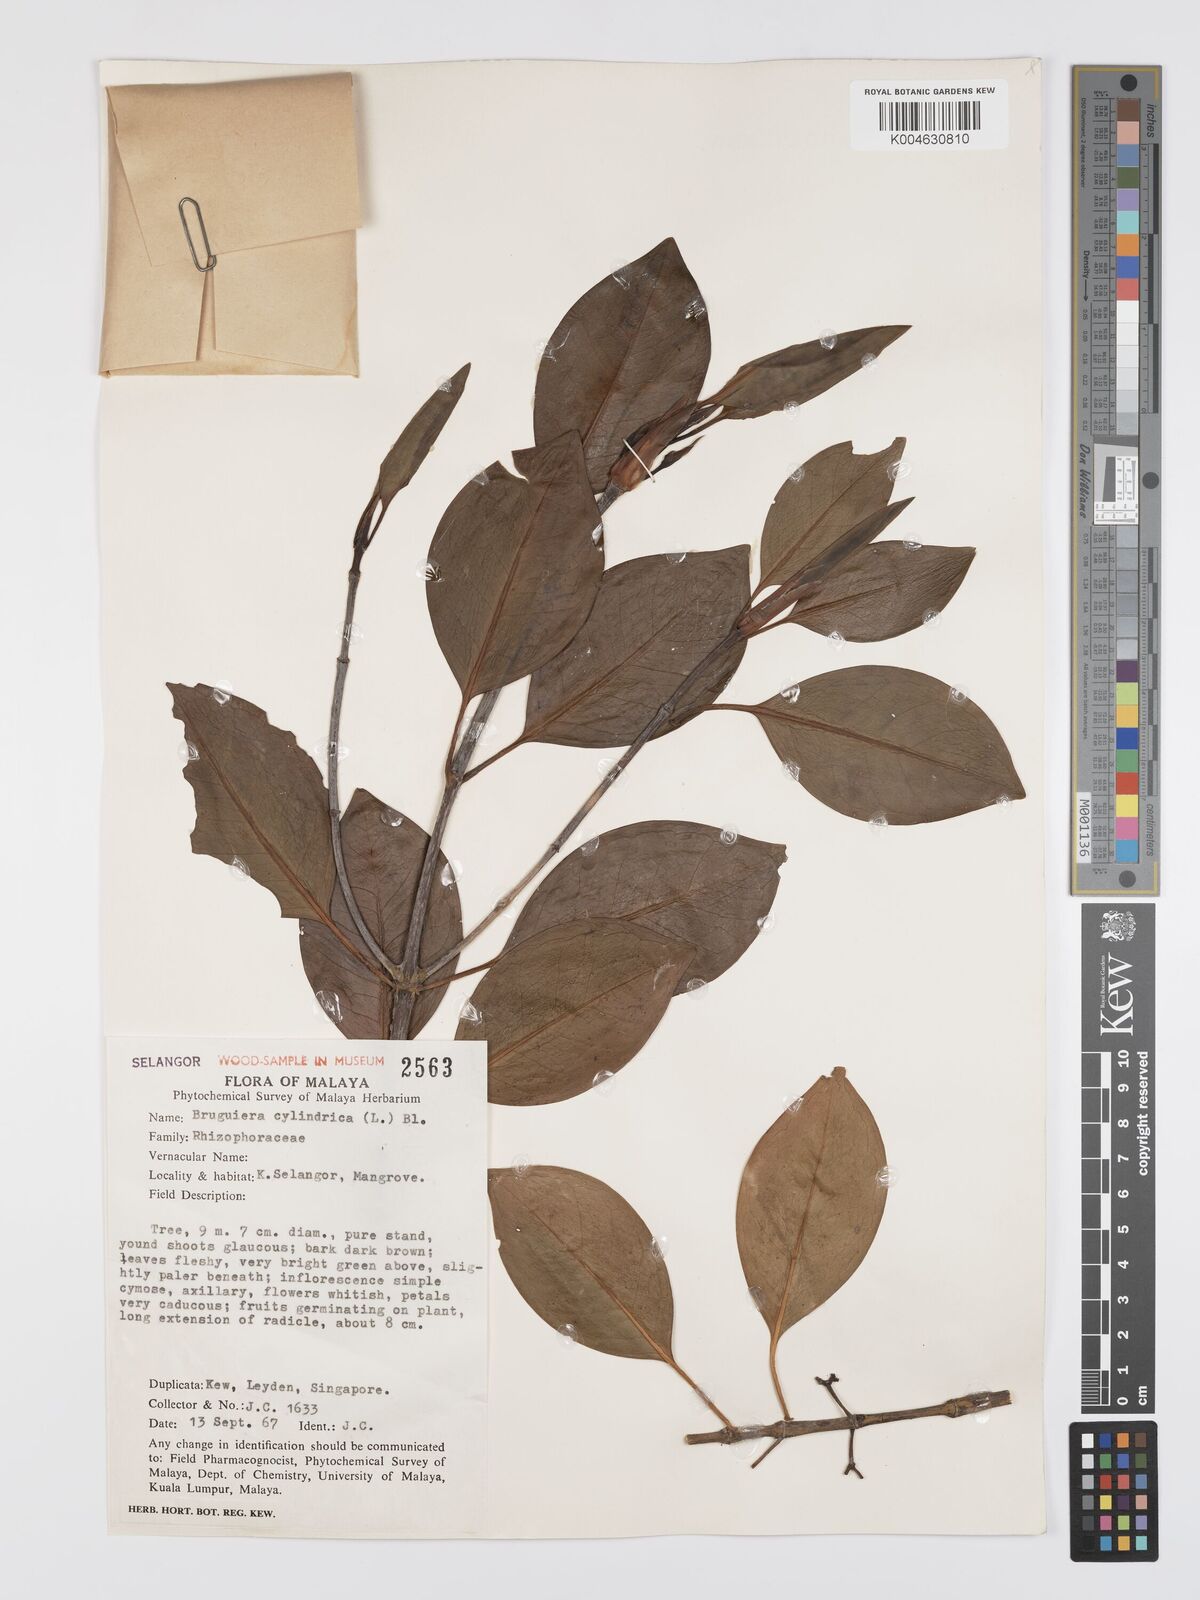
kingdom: Plantae
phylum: Tracheophyta
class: Magnoliopsida
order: Malpighiales
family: Rhizophoraceae
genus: Bruguiera
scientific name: Bruguiera cylindrica
